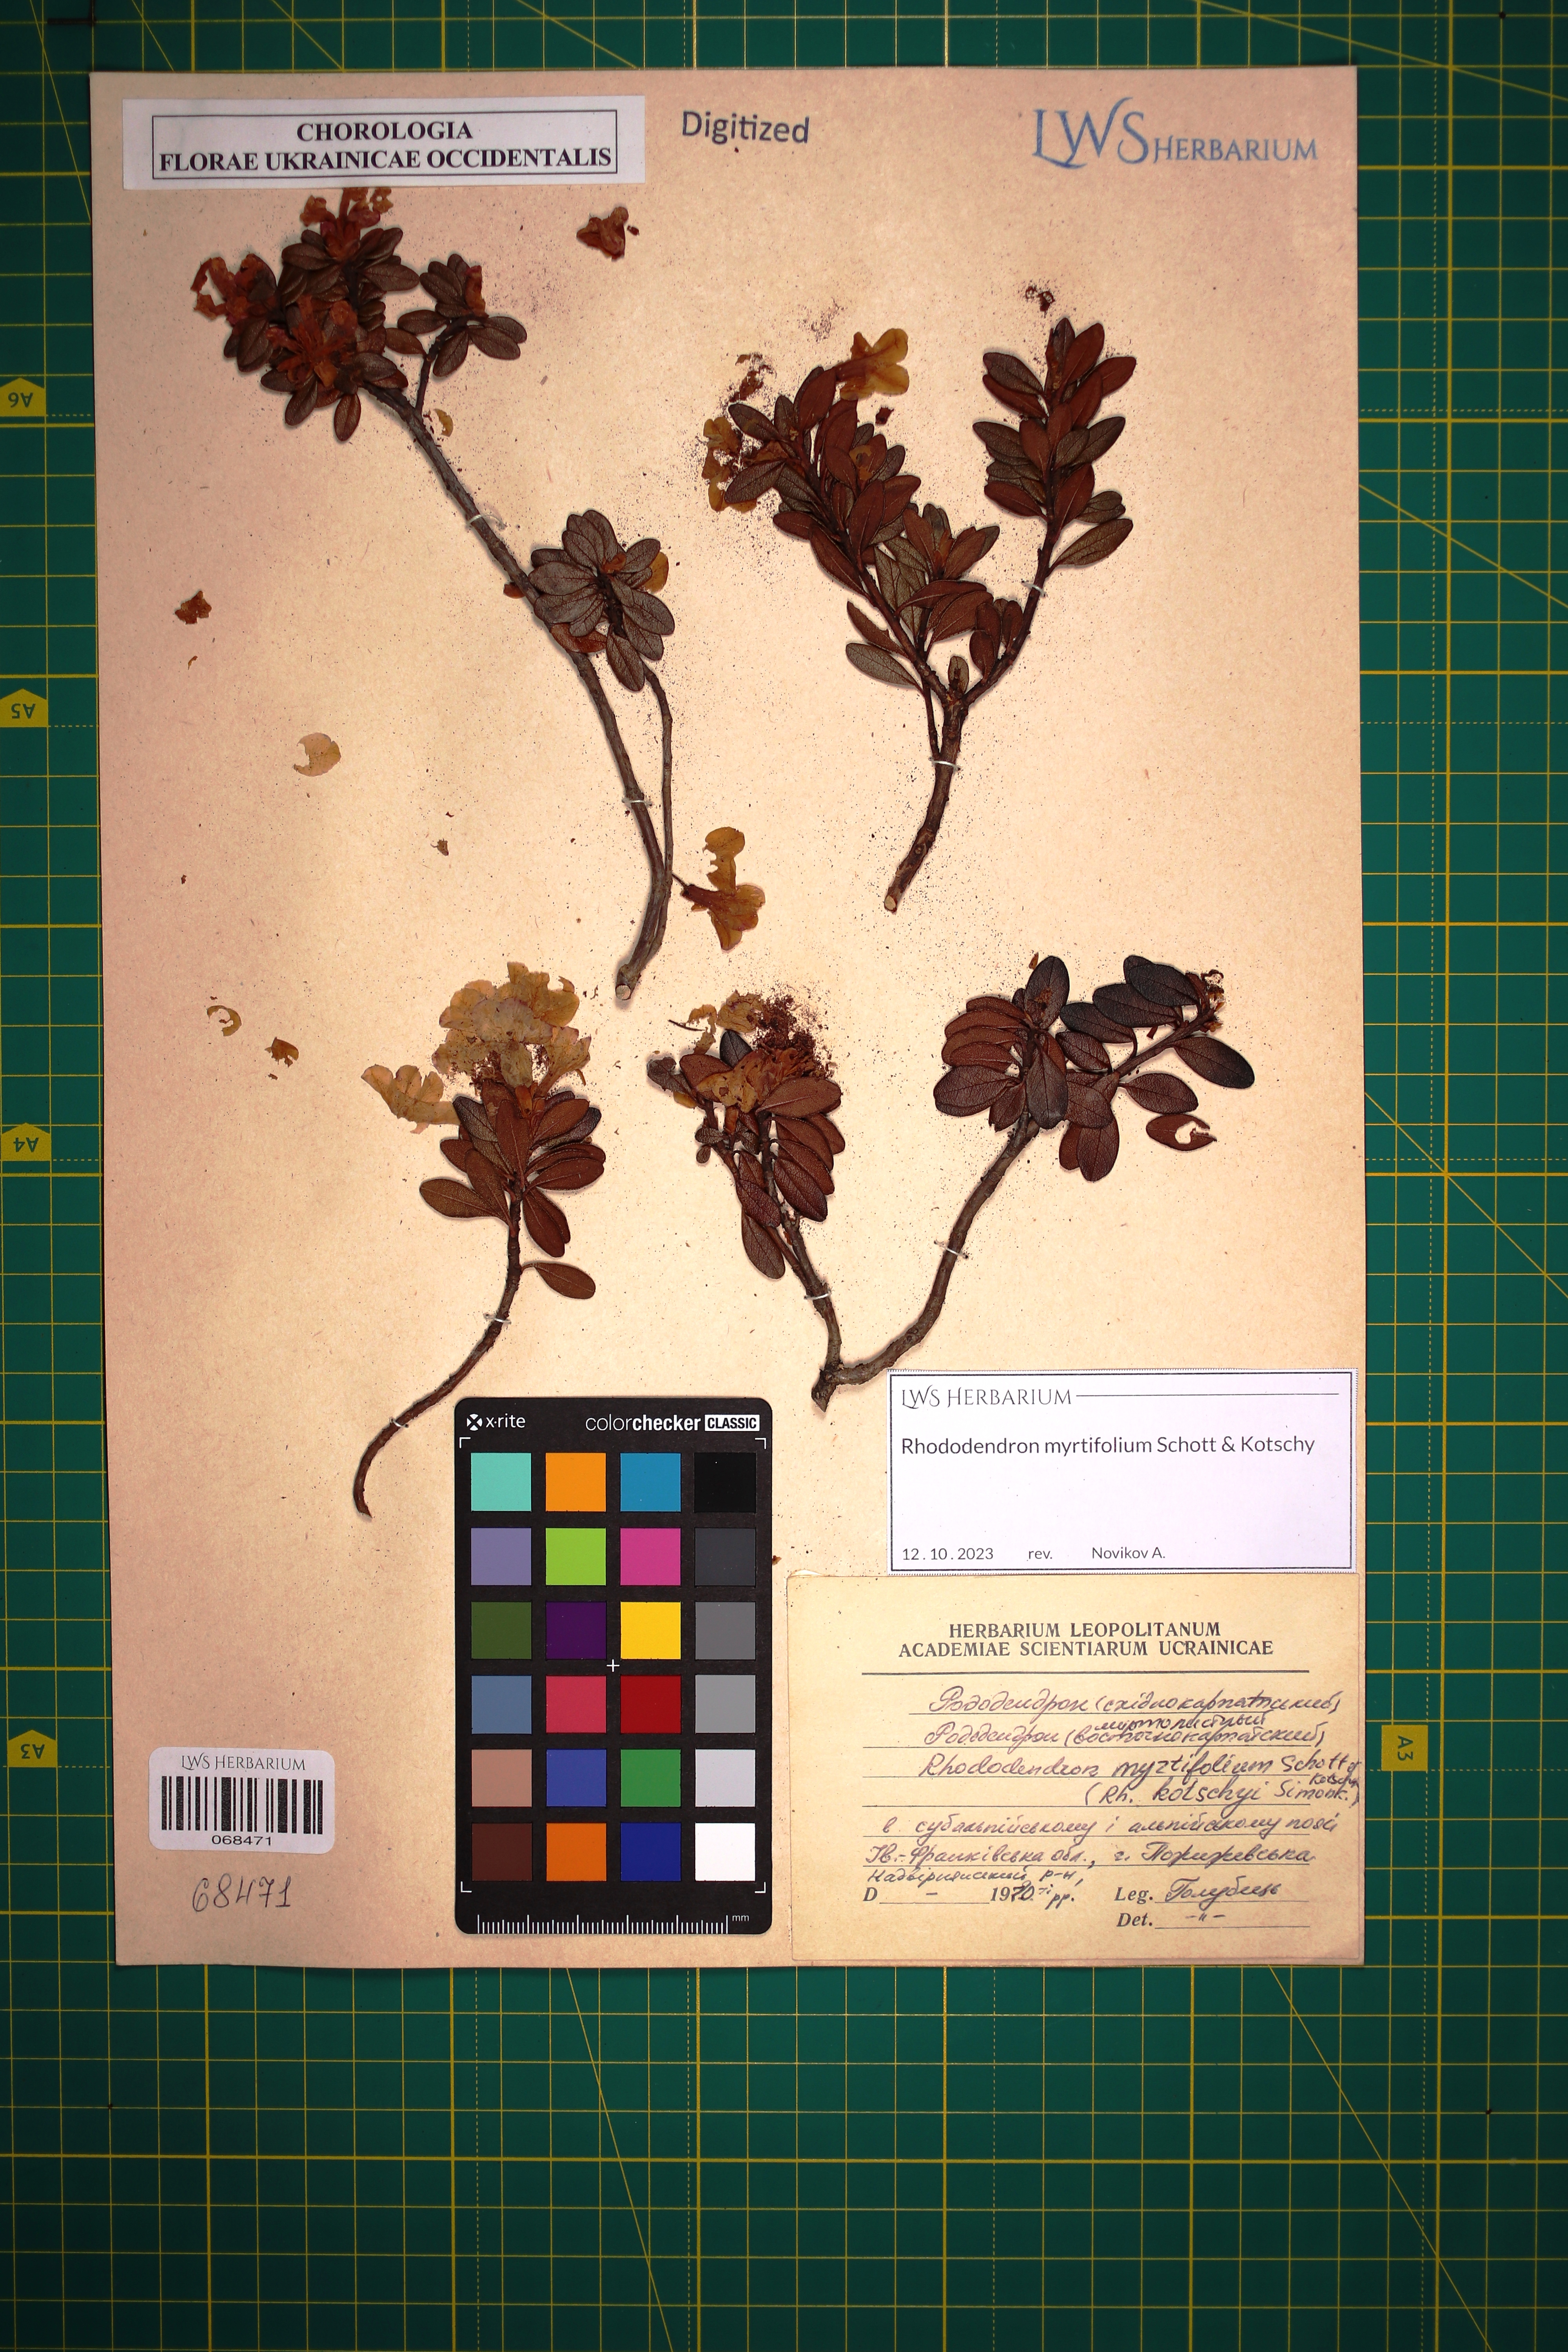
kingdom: Plantae
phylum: Tracheophyta
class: Magnoliopsida
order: Ericales
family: Ericaceae
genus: Rhododendron
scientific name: Rhododendron kotschyi
